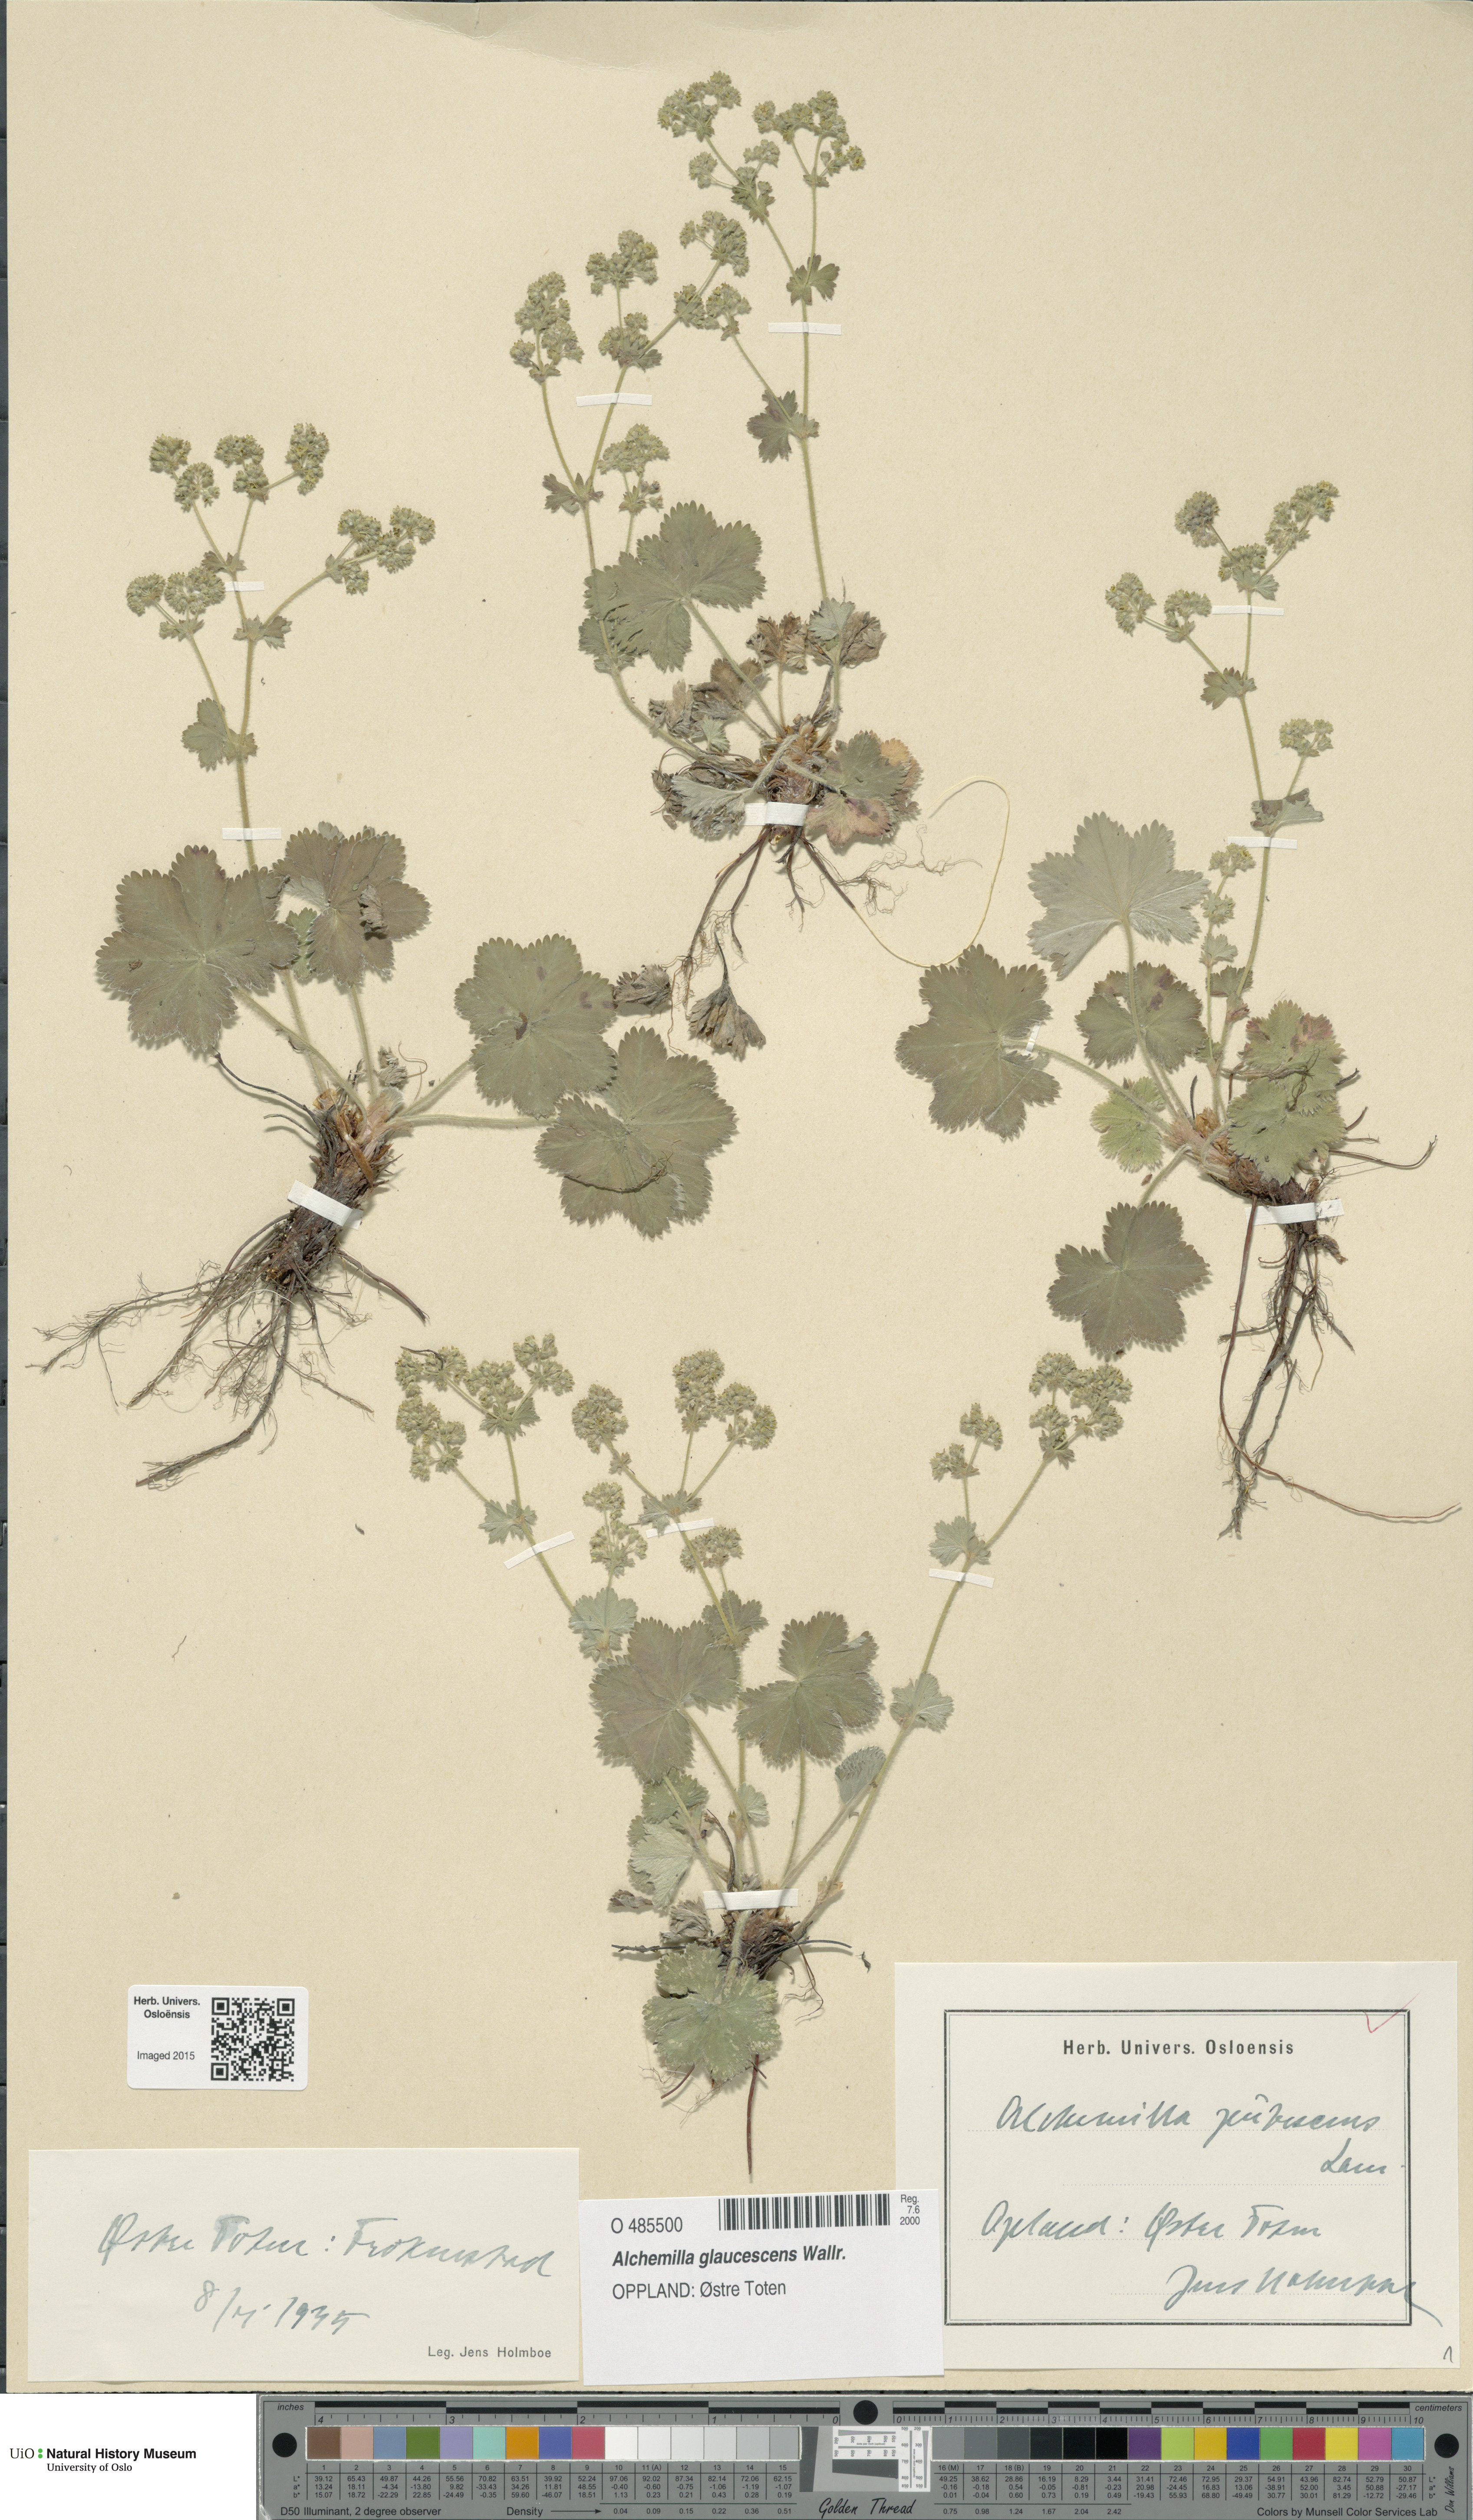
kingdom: Plantae
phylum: Tracheophyta
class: Magnoliopsida
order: Rosales
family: Rosaceae
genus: Alchemilla
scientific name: Alchemilla glaucescens
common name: Silky lady's mantle
